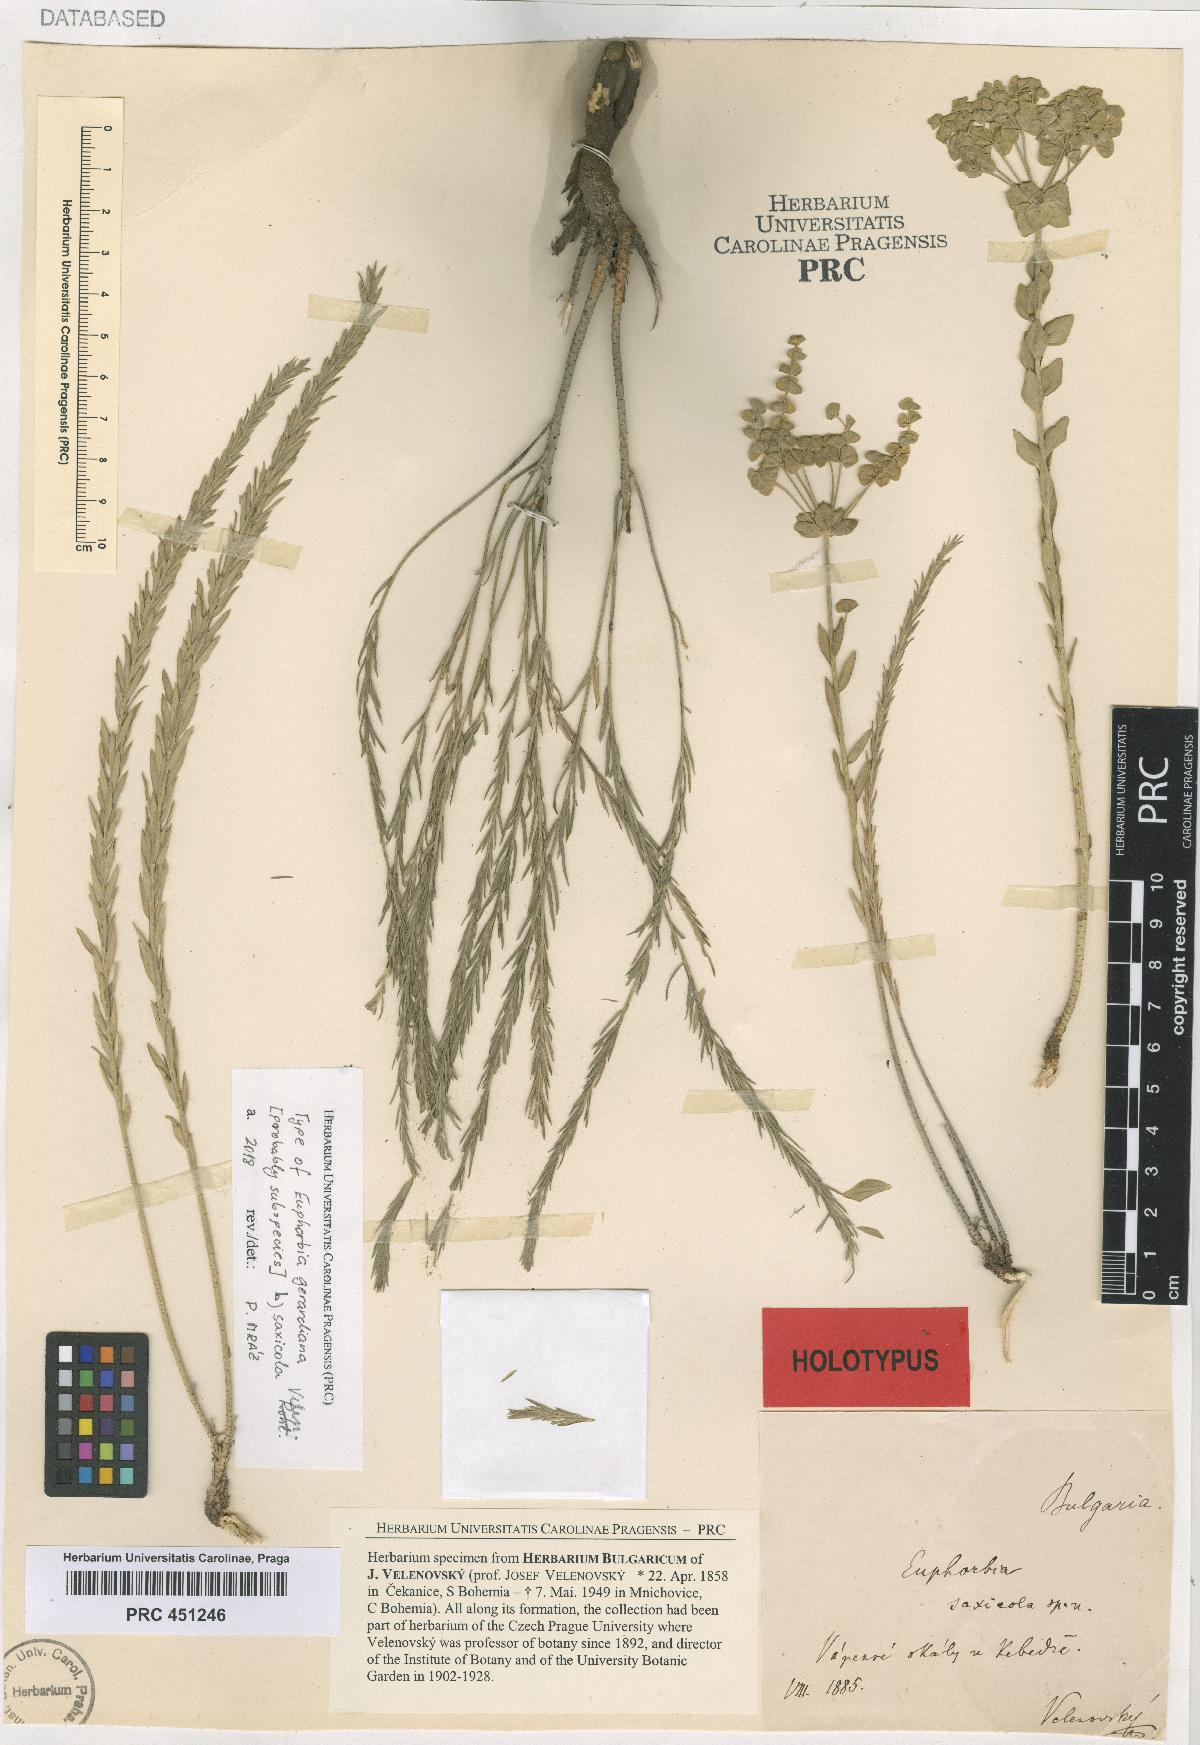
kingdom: Plantae
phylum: Tracheophyta
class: Magnoliopsida
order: Malpighiales
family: Euphorbiaceae
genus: Euphorbia
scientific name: Euphorbia seguieriana
